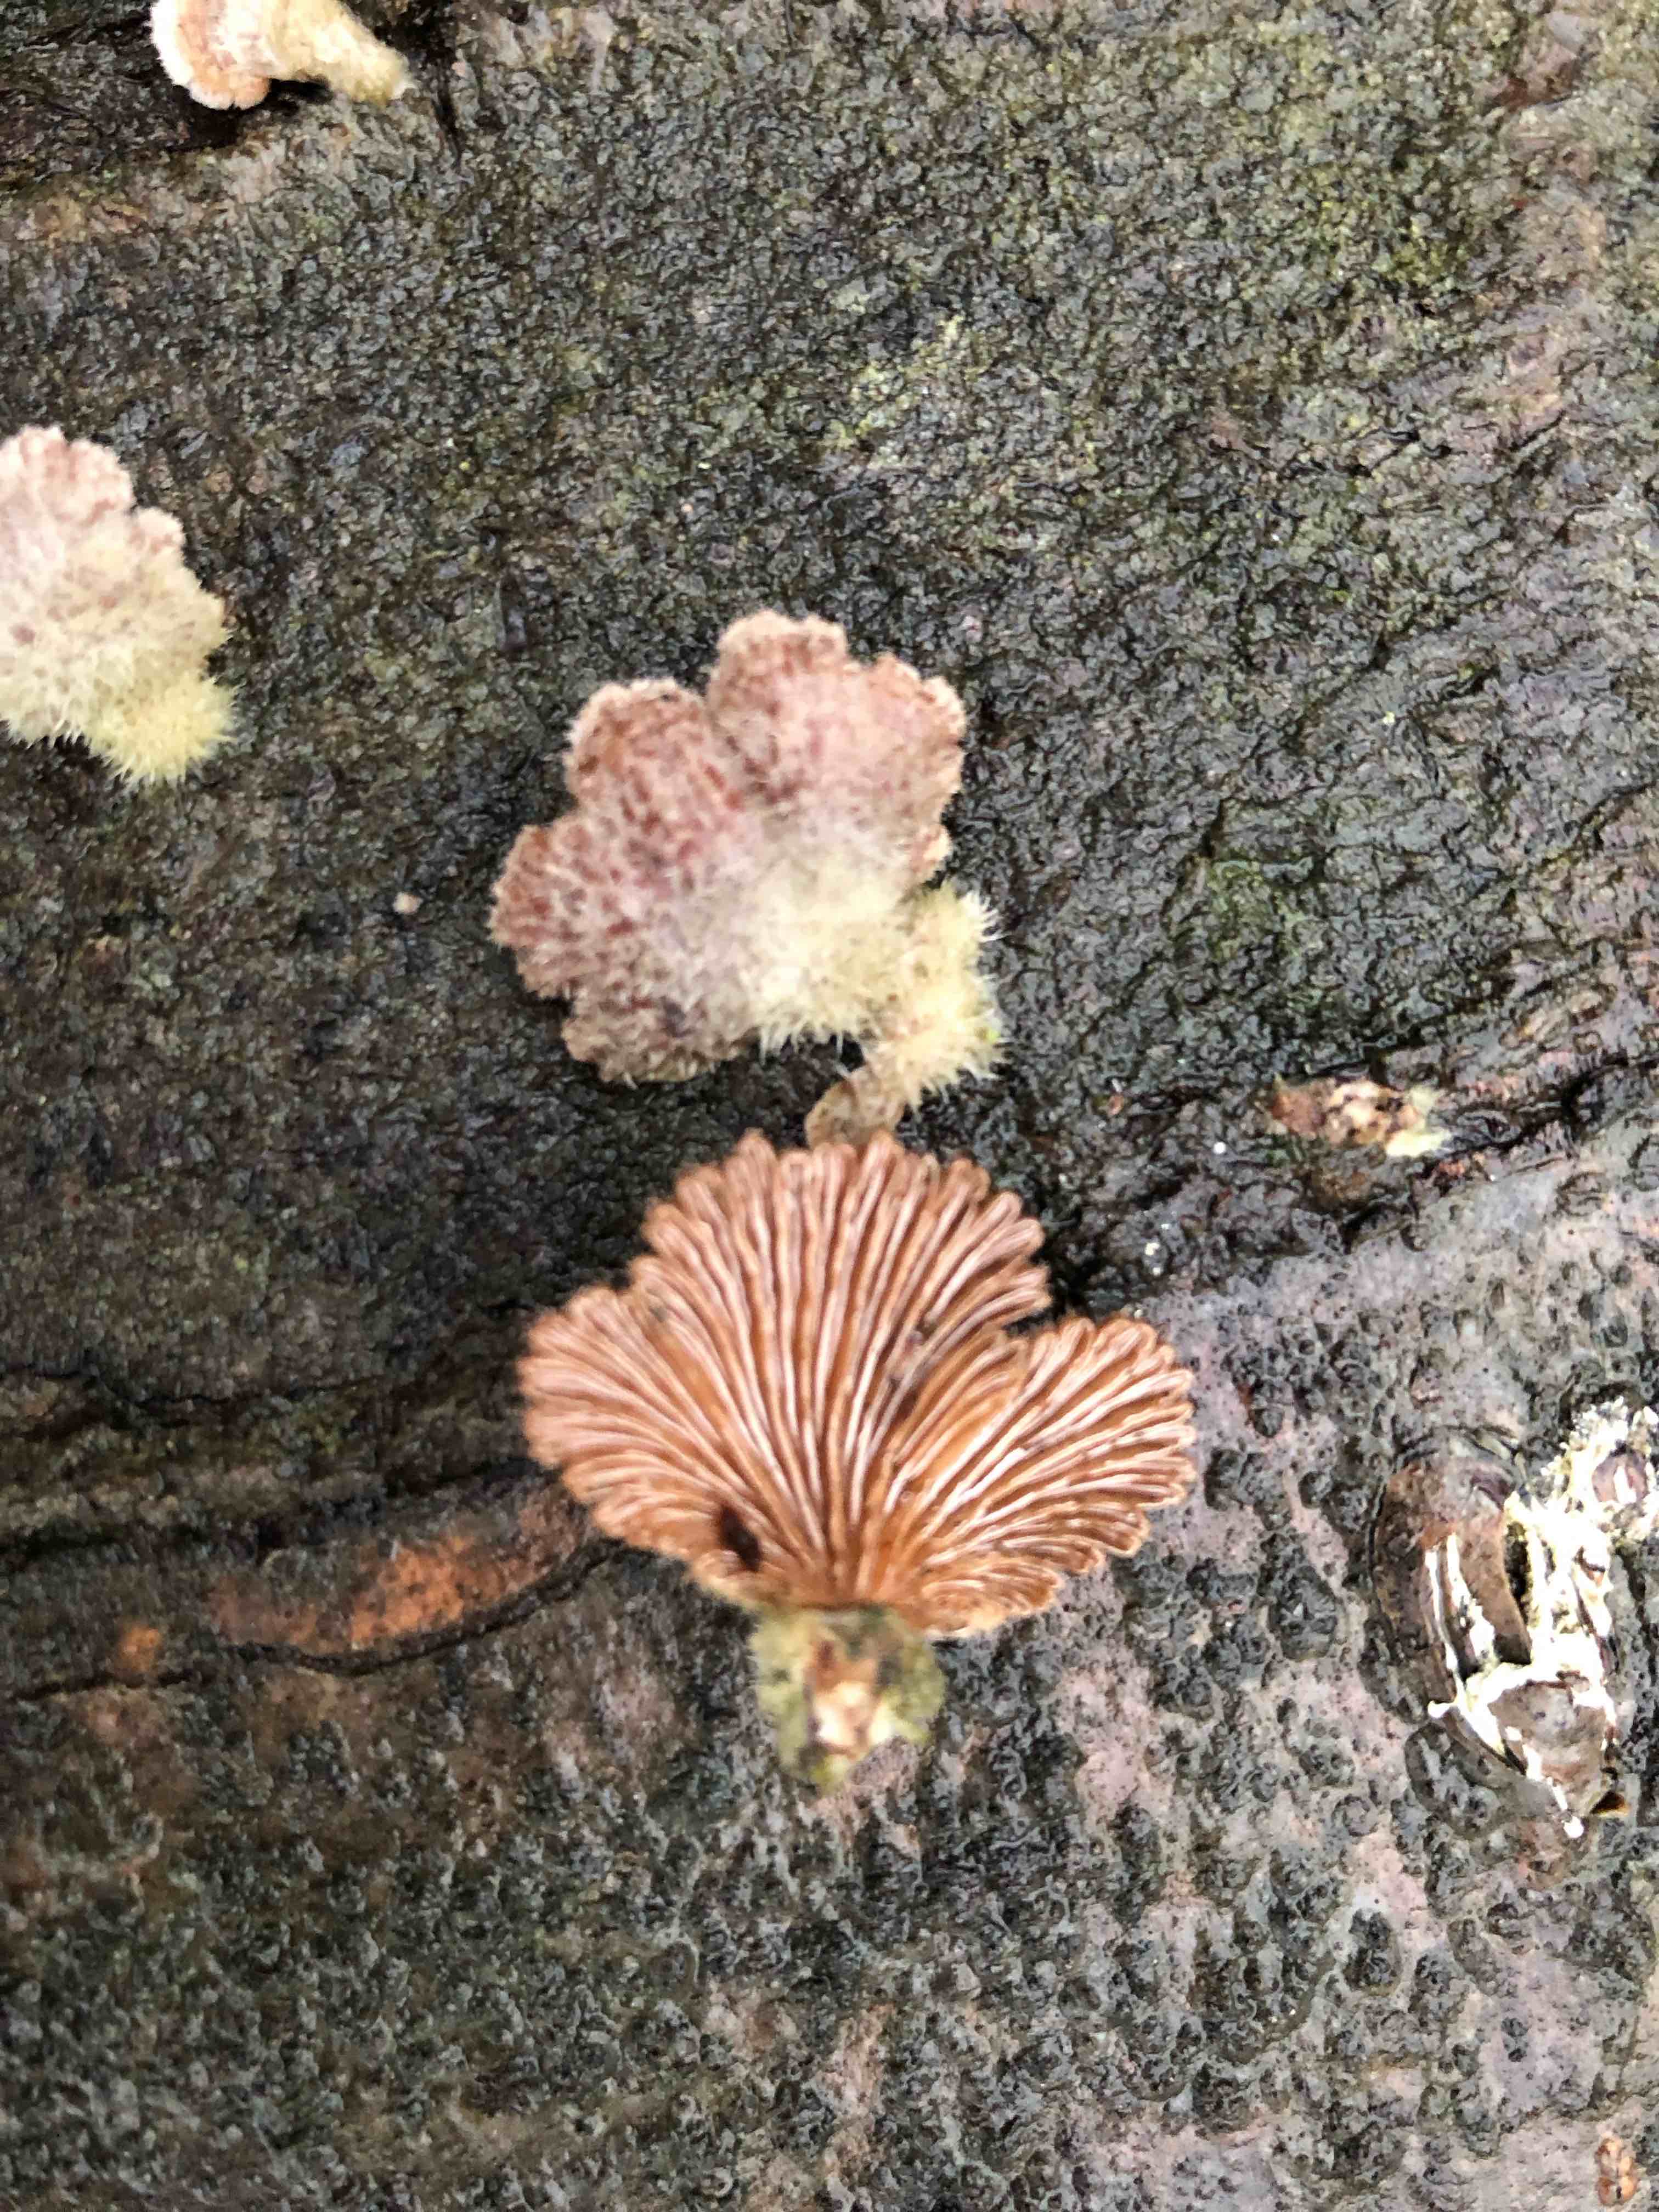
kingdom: Fungi
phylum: Basidiomycota
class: Agaricomycetes
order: Agaricales
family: Schizophyllaceae
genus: Schizophyllum
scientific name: Schizophyllum commune
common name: kløvblad
